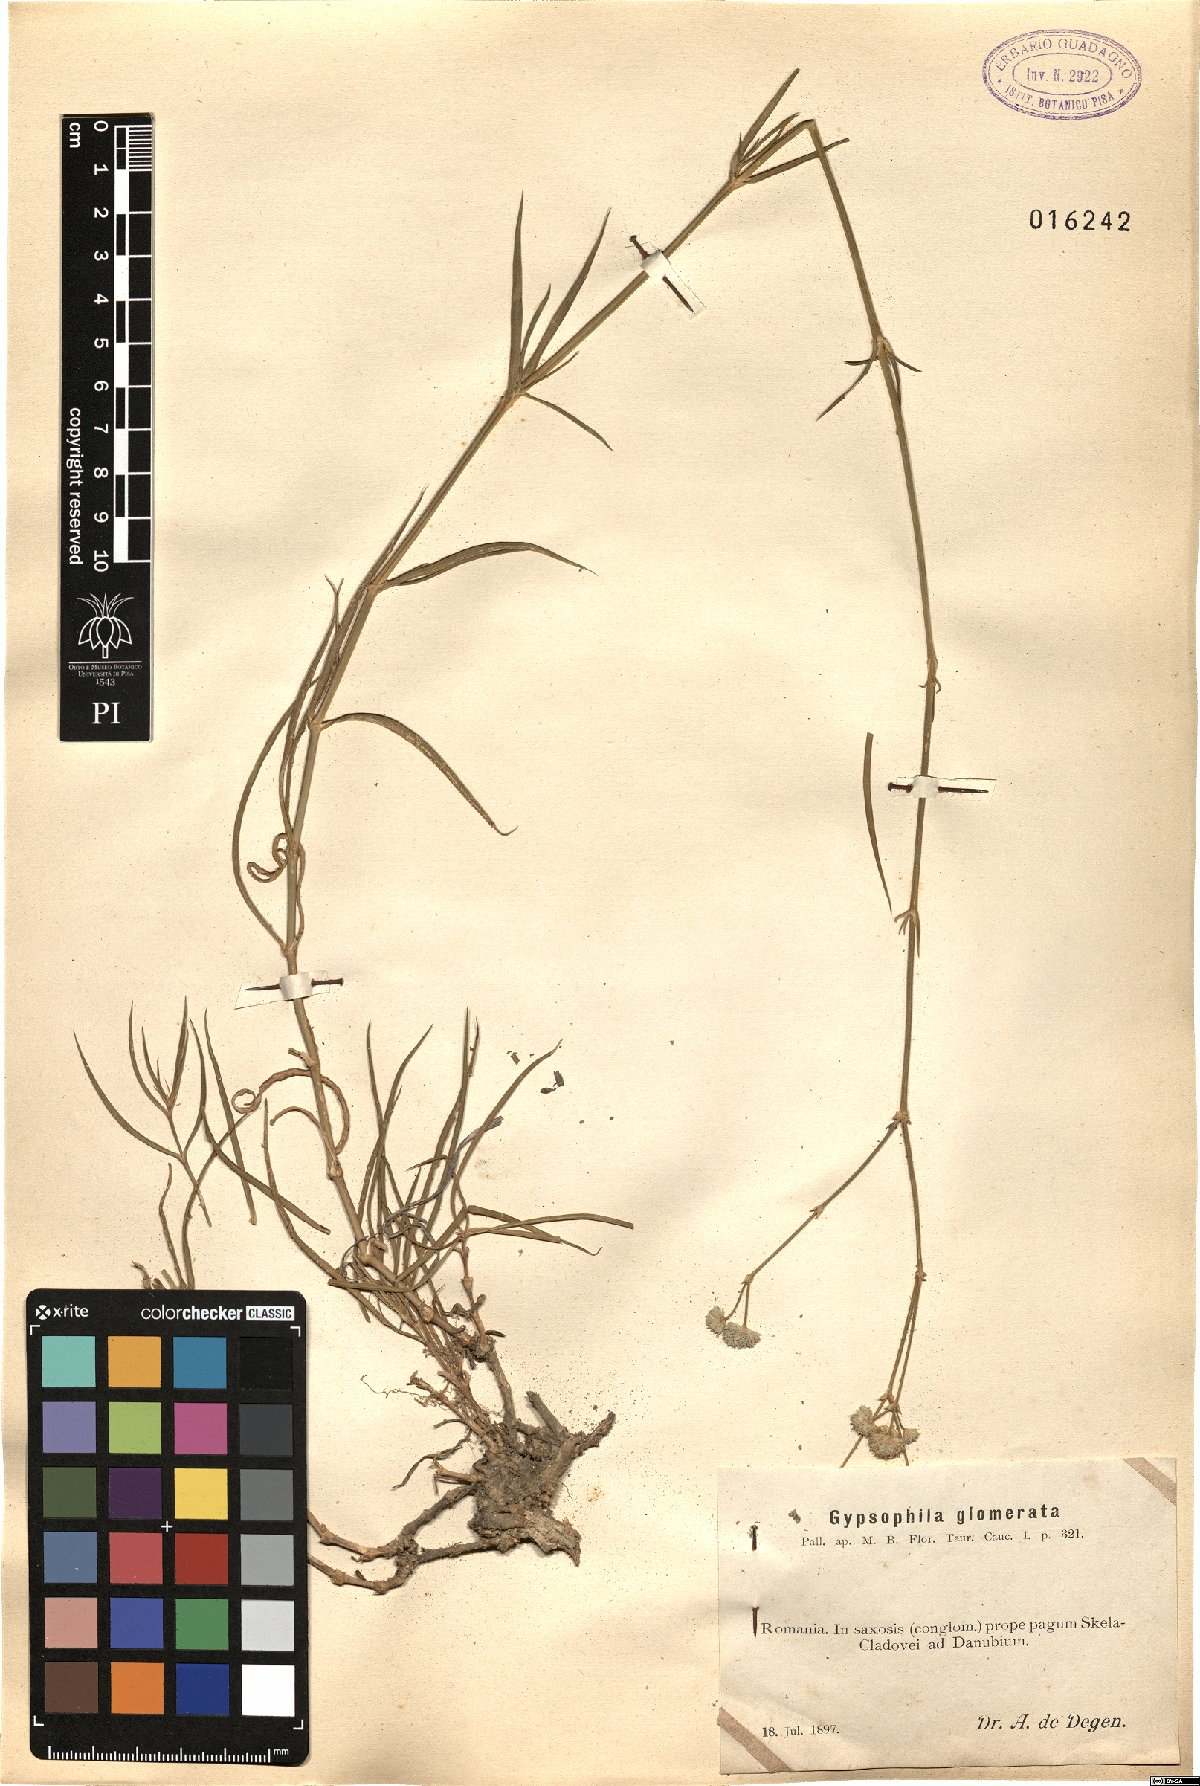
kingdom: Plantae
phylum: Tracheophyta
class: Magnoliopsida
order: Caryophyllales
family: Caryophyllaceae
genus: Gypsophila
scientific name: Gypsophila glomerata
